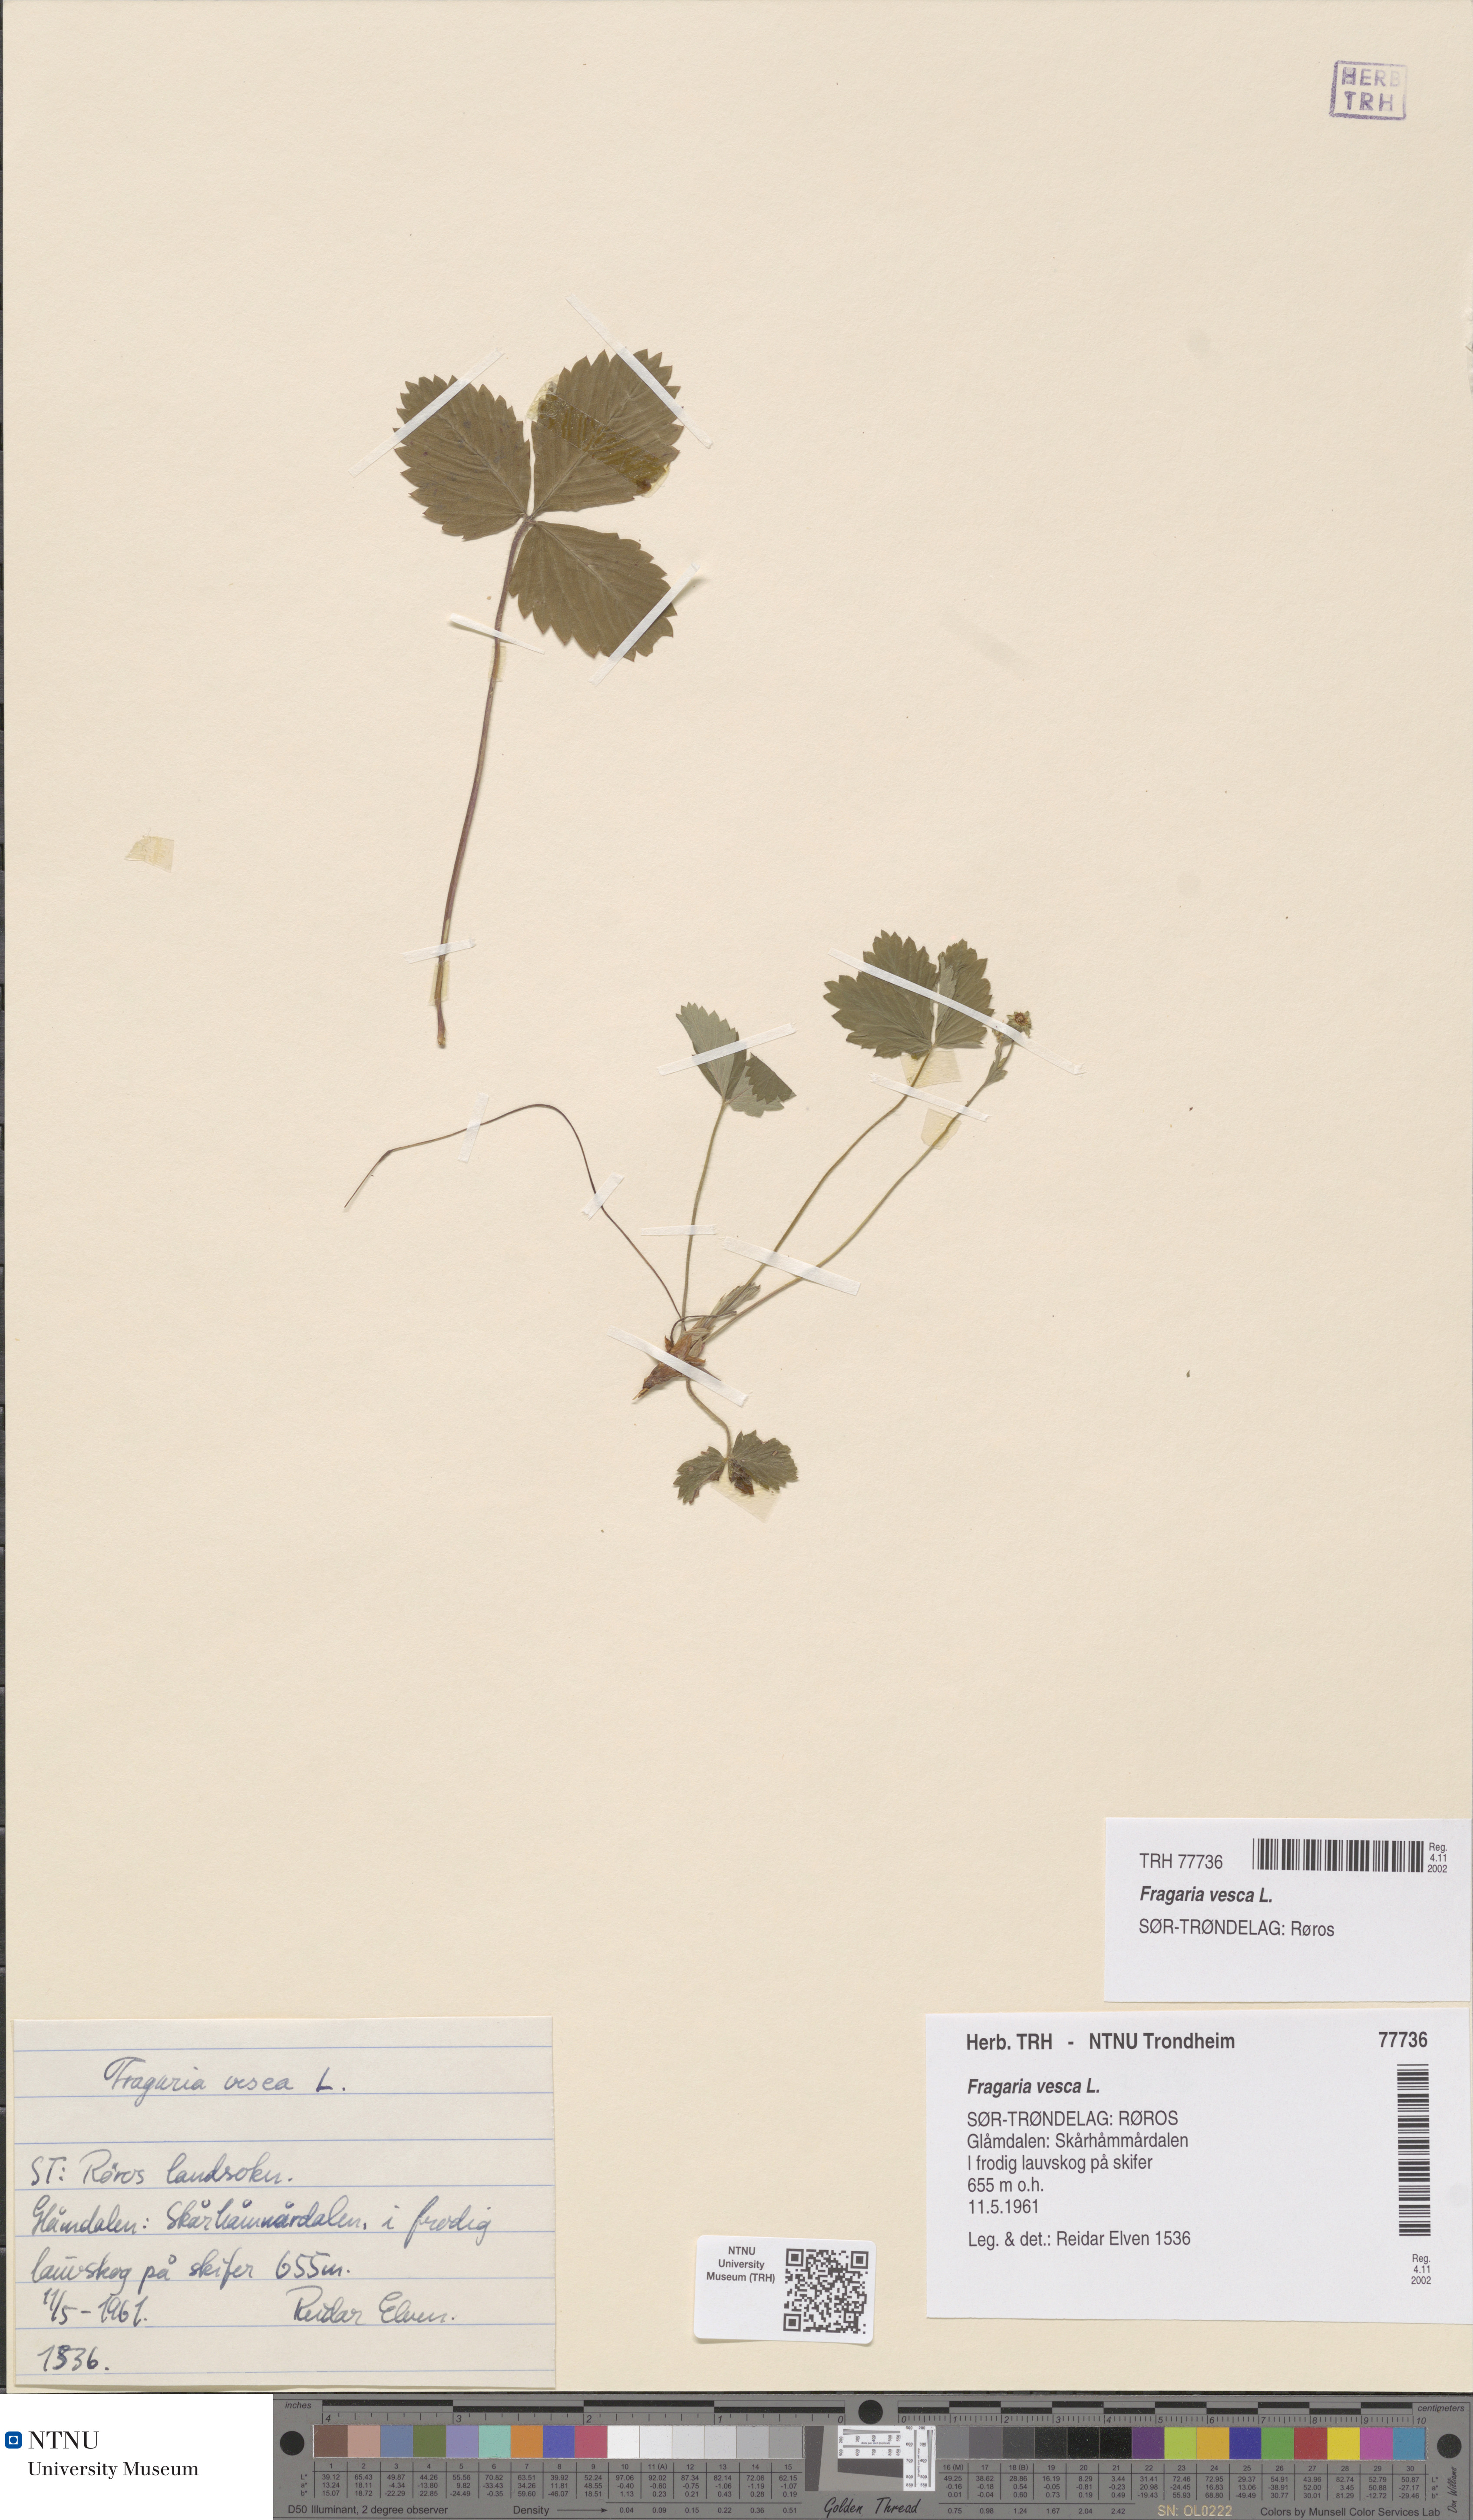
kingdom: Plantae
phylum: Tracheophyta
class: Magnoliopsida
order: Rosales
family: Rosaceae
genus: Fragaria
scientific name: Fragaria vesca
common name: Wild strawberry
